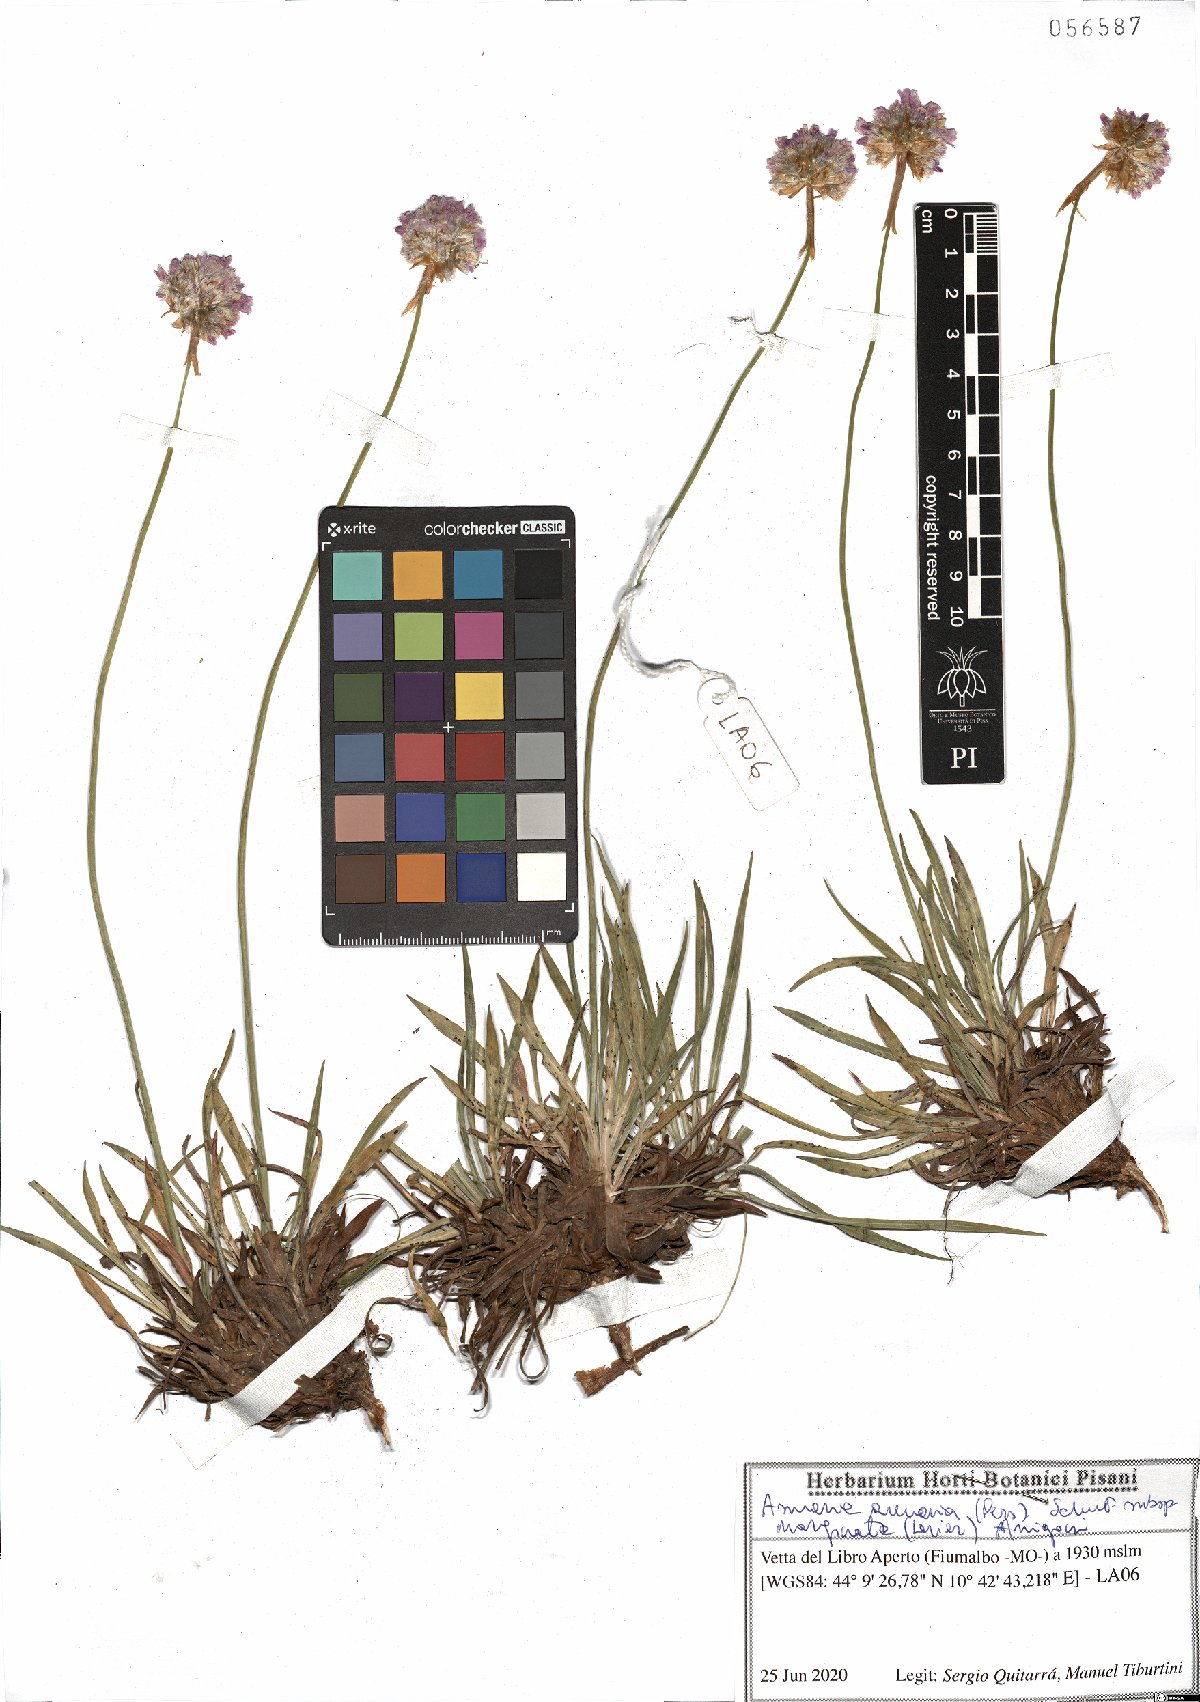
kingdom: Plantae
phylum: Tracheophyta
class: Magnoliopsida
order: Caryophyllales
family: Plumbaginaceae
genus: Armeria
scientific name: Armeria arenaria
